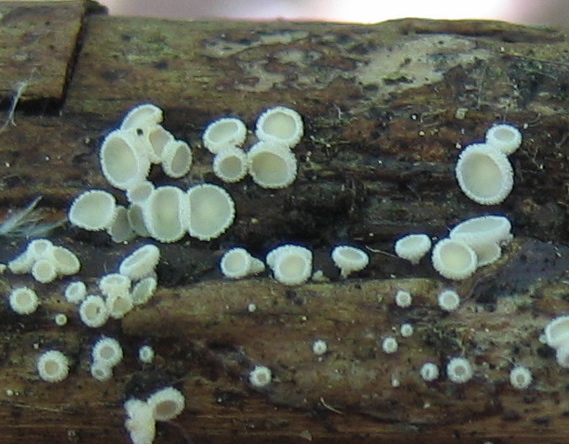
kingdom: Fungi
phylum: Ascomycota
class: Leotiomycetes
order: Helotiales
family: Lachnaceae
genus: Lachnum
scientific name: Lachnum
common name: frynseskive
